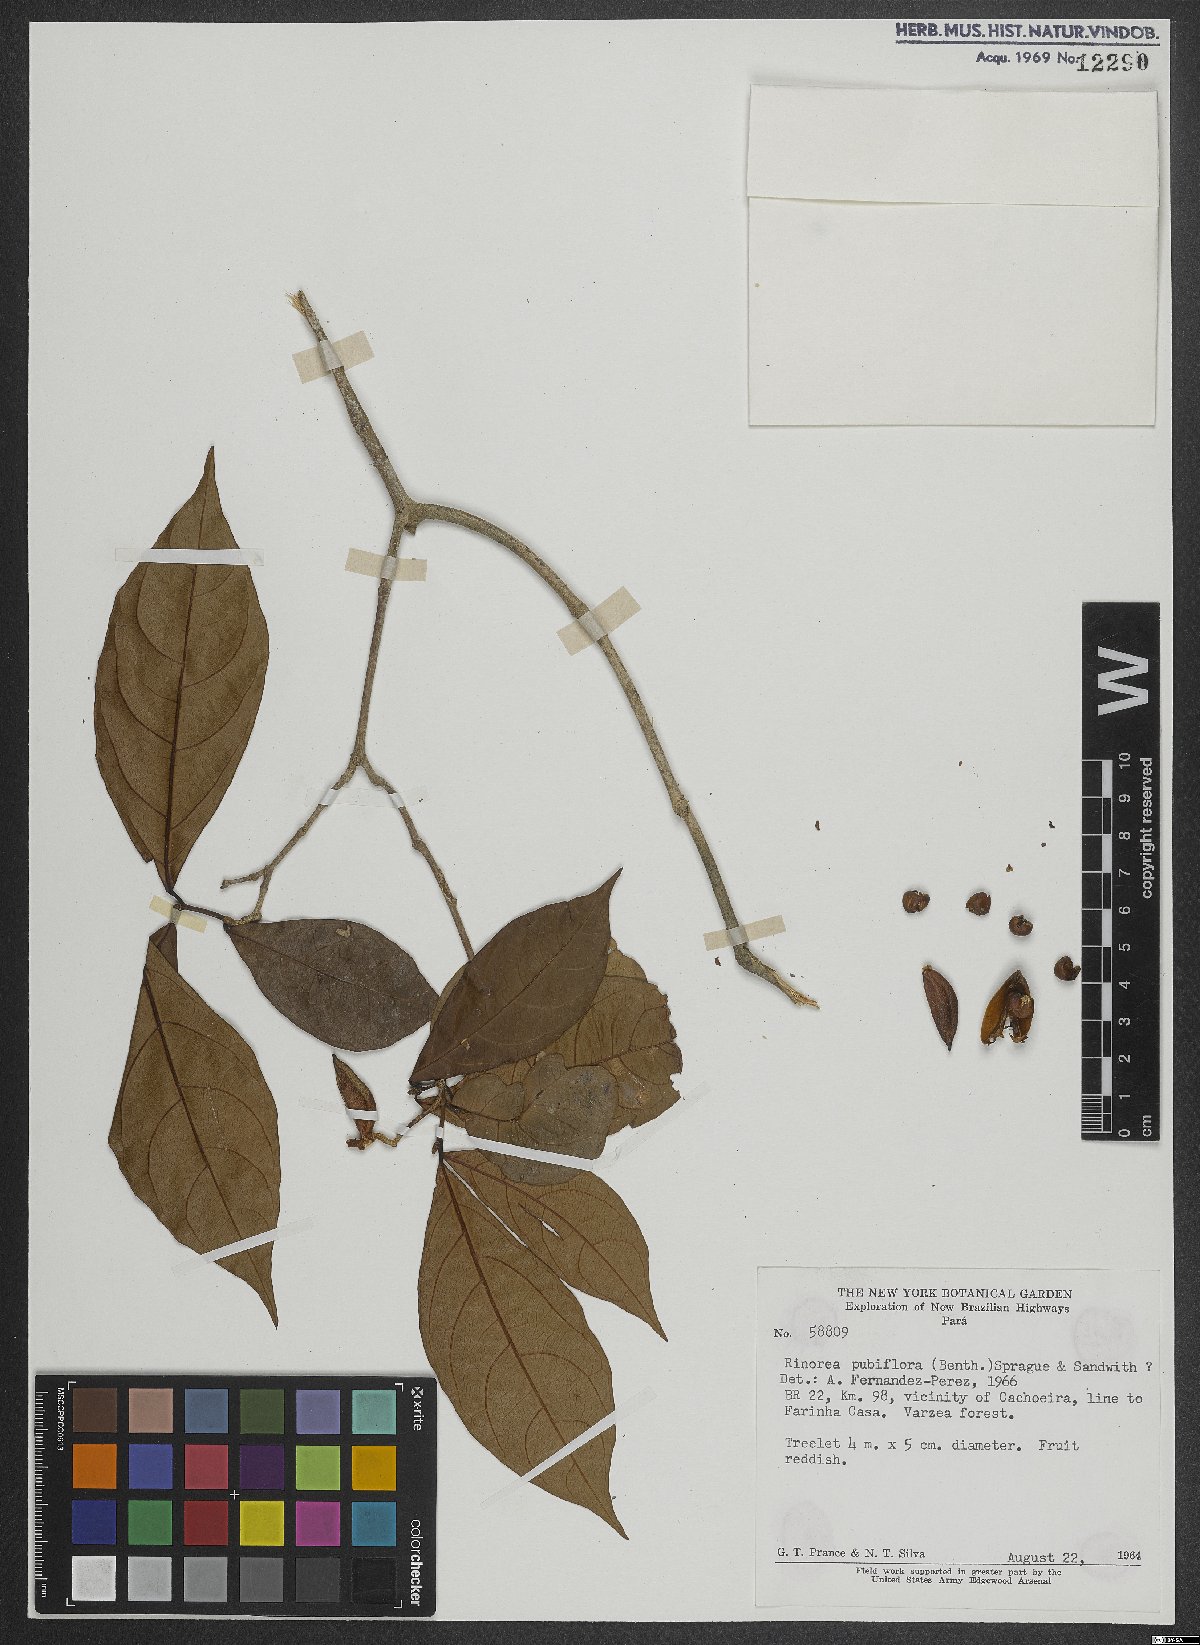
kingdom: Plantae
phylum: Tracheophyta
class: Magnoliopsida
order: Malpighiales
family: Violaceae
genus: Rinorea
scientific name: Rinorea pubiflora
